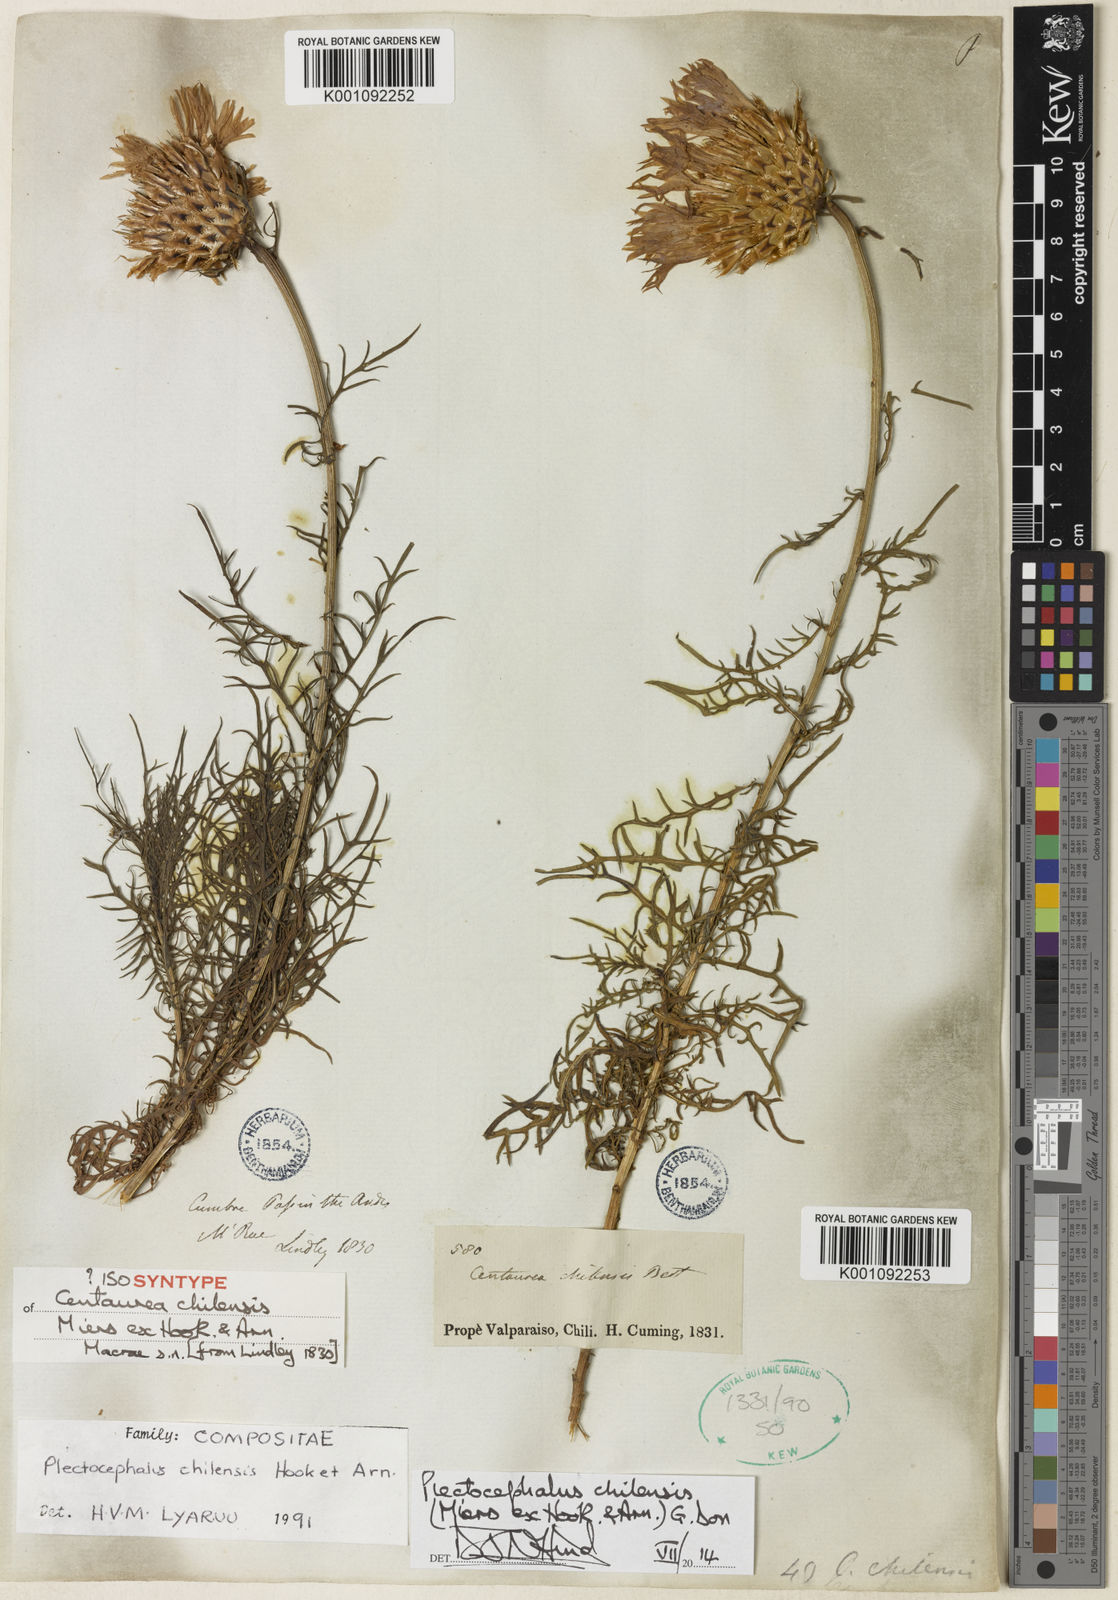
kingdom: Plantae
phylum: Tracheophyta
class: Magnoliopsida
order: Asterales
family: Asteraceae
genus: Plectocephalus
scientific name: Plectocephalus chilensis
